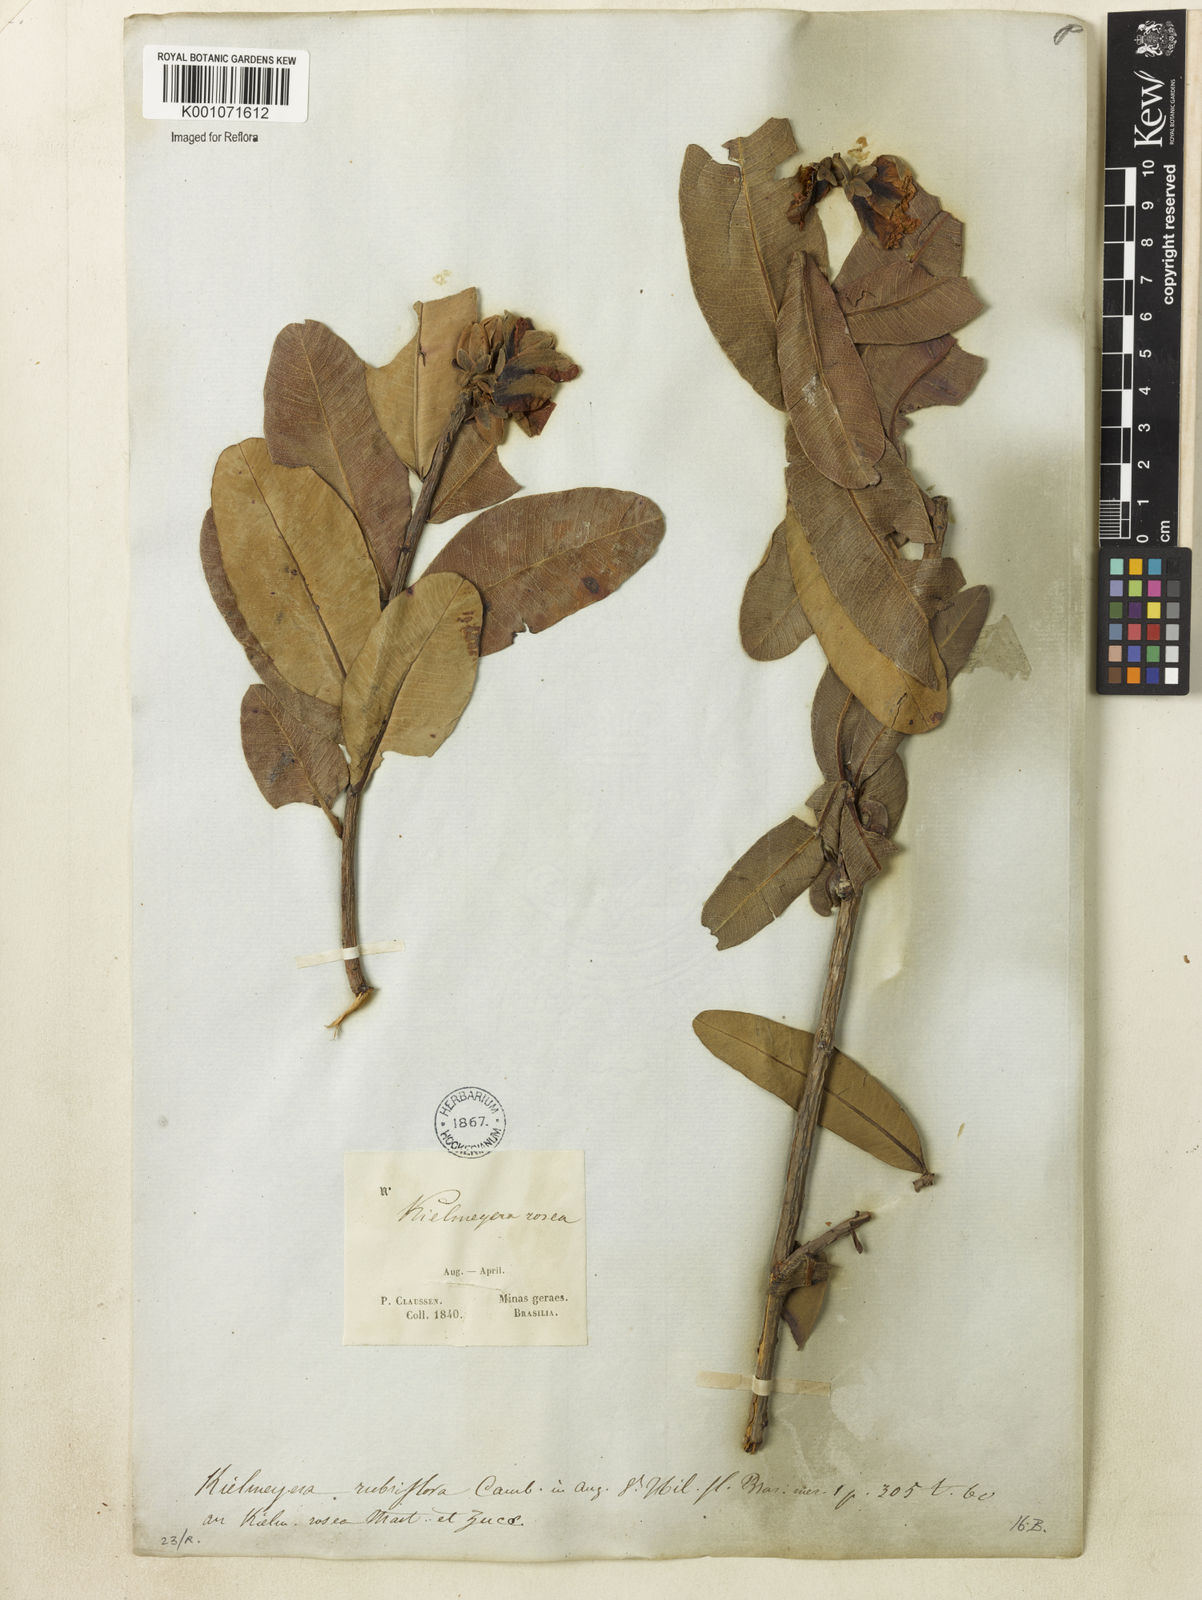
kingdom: Plantae
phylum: Tracheophyta
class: Magnoliopsida
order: Malpighiales
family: Calophyllaceae
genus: Kielmeyera
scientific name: Kielmeyera rubriflora
